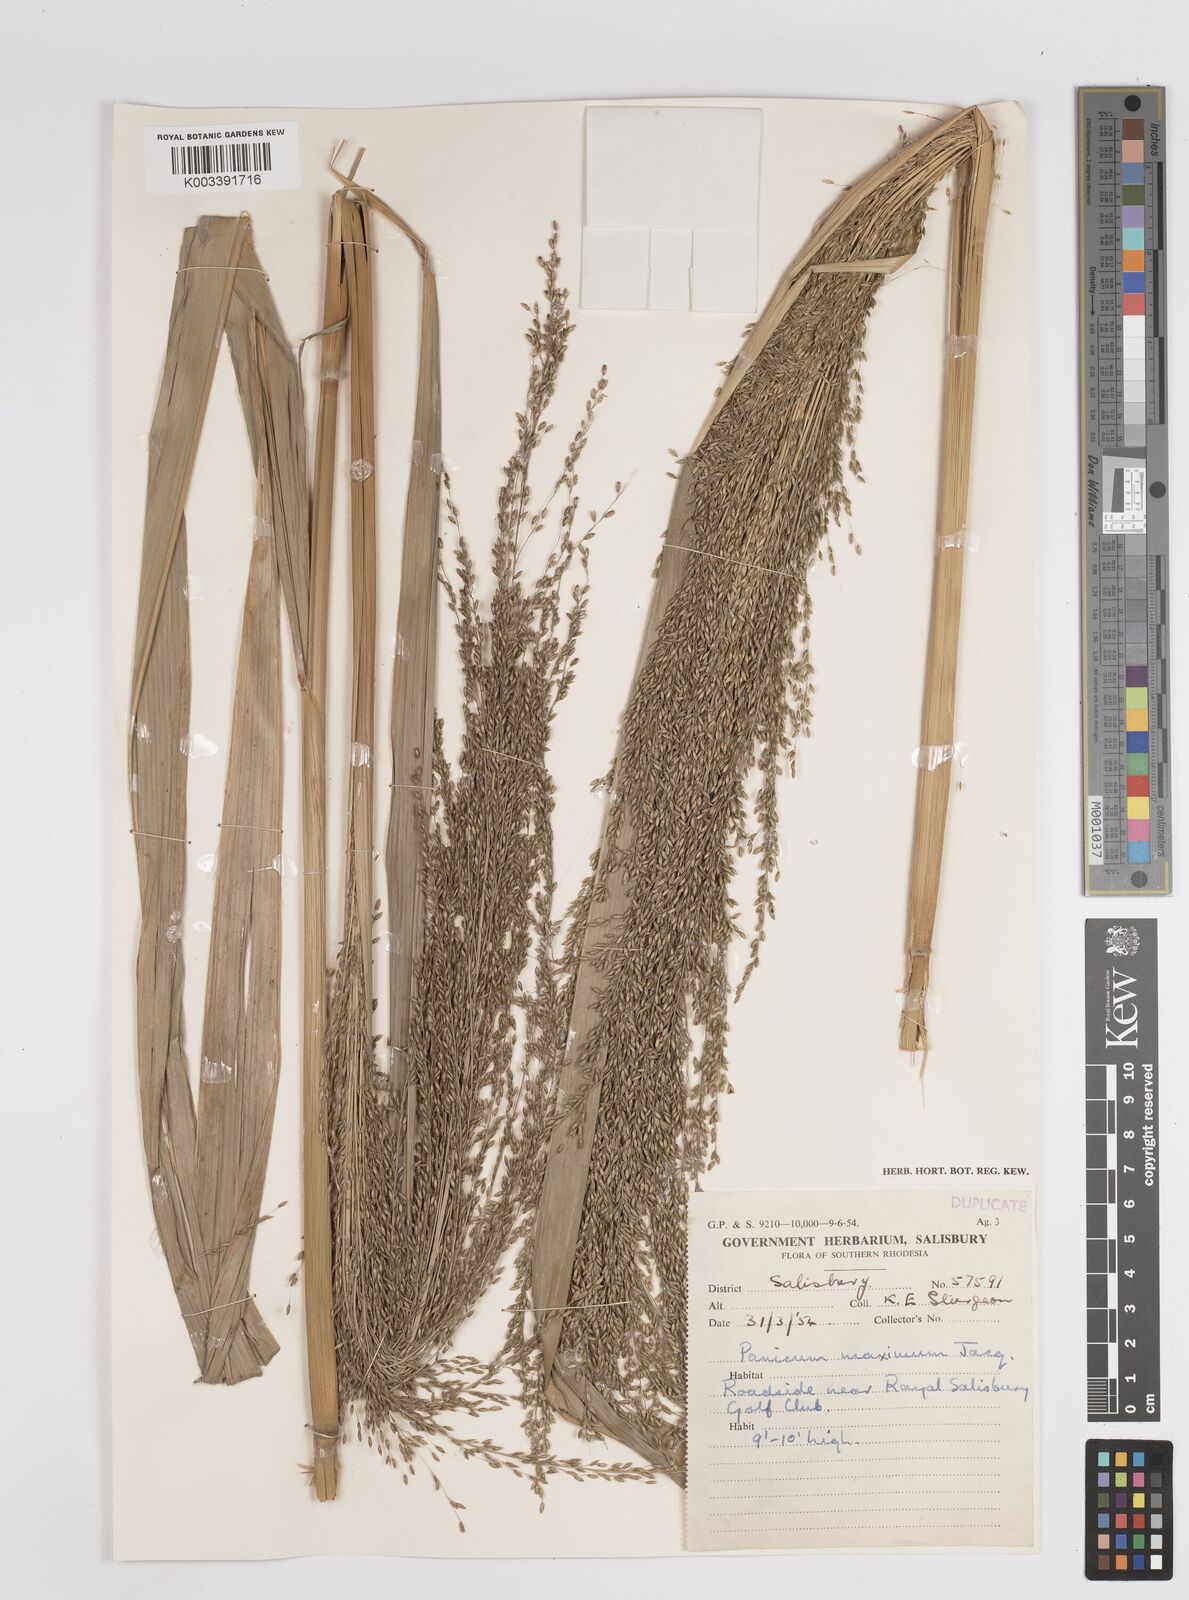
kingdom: Plantae
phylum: Tracheophyta
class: Liliopsida
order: Poales
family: Poaceae
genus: Megathyrsus
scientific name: Megathyrsus maximus
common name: Guineagrass
